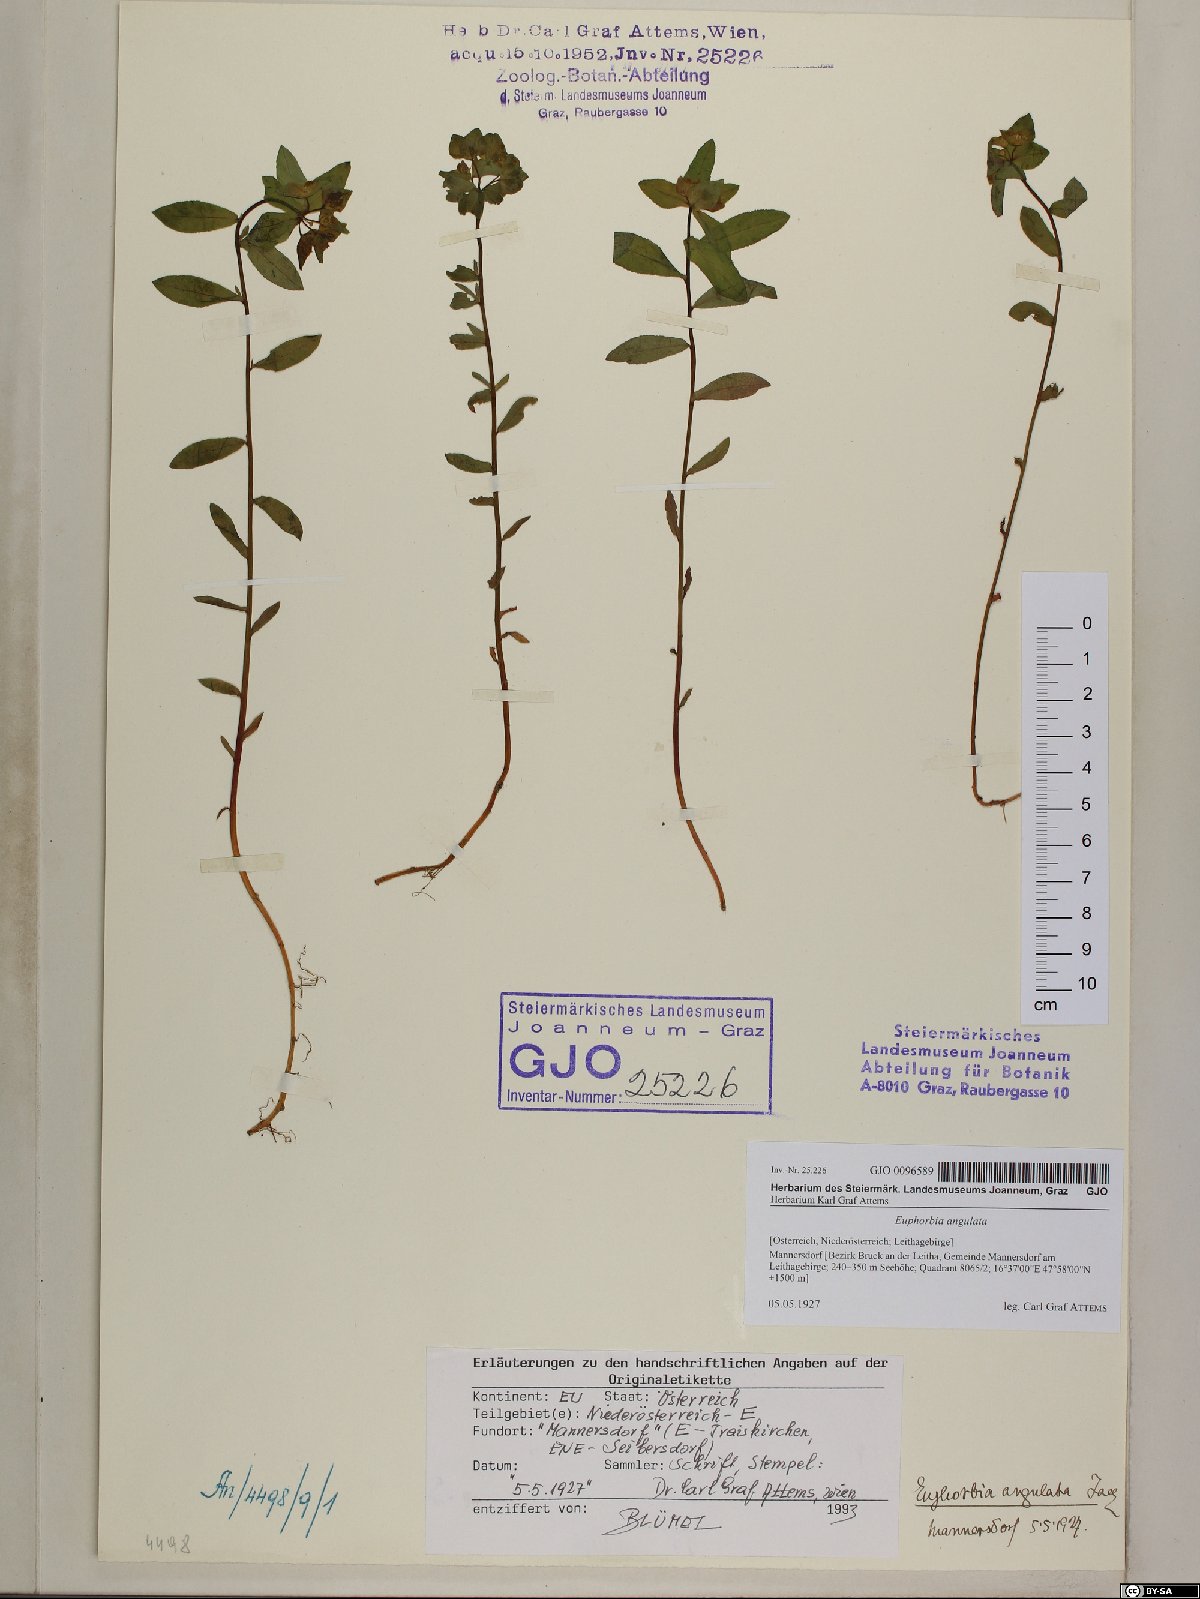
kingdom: Plantae
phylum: Tracheophyta
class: Magnoliopsida
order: Malpighiales
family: Euphorbiaceae
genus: Euphorbia
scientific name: Euphorbia angulata
